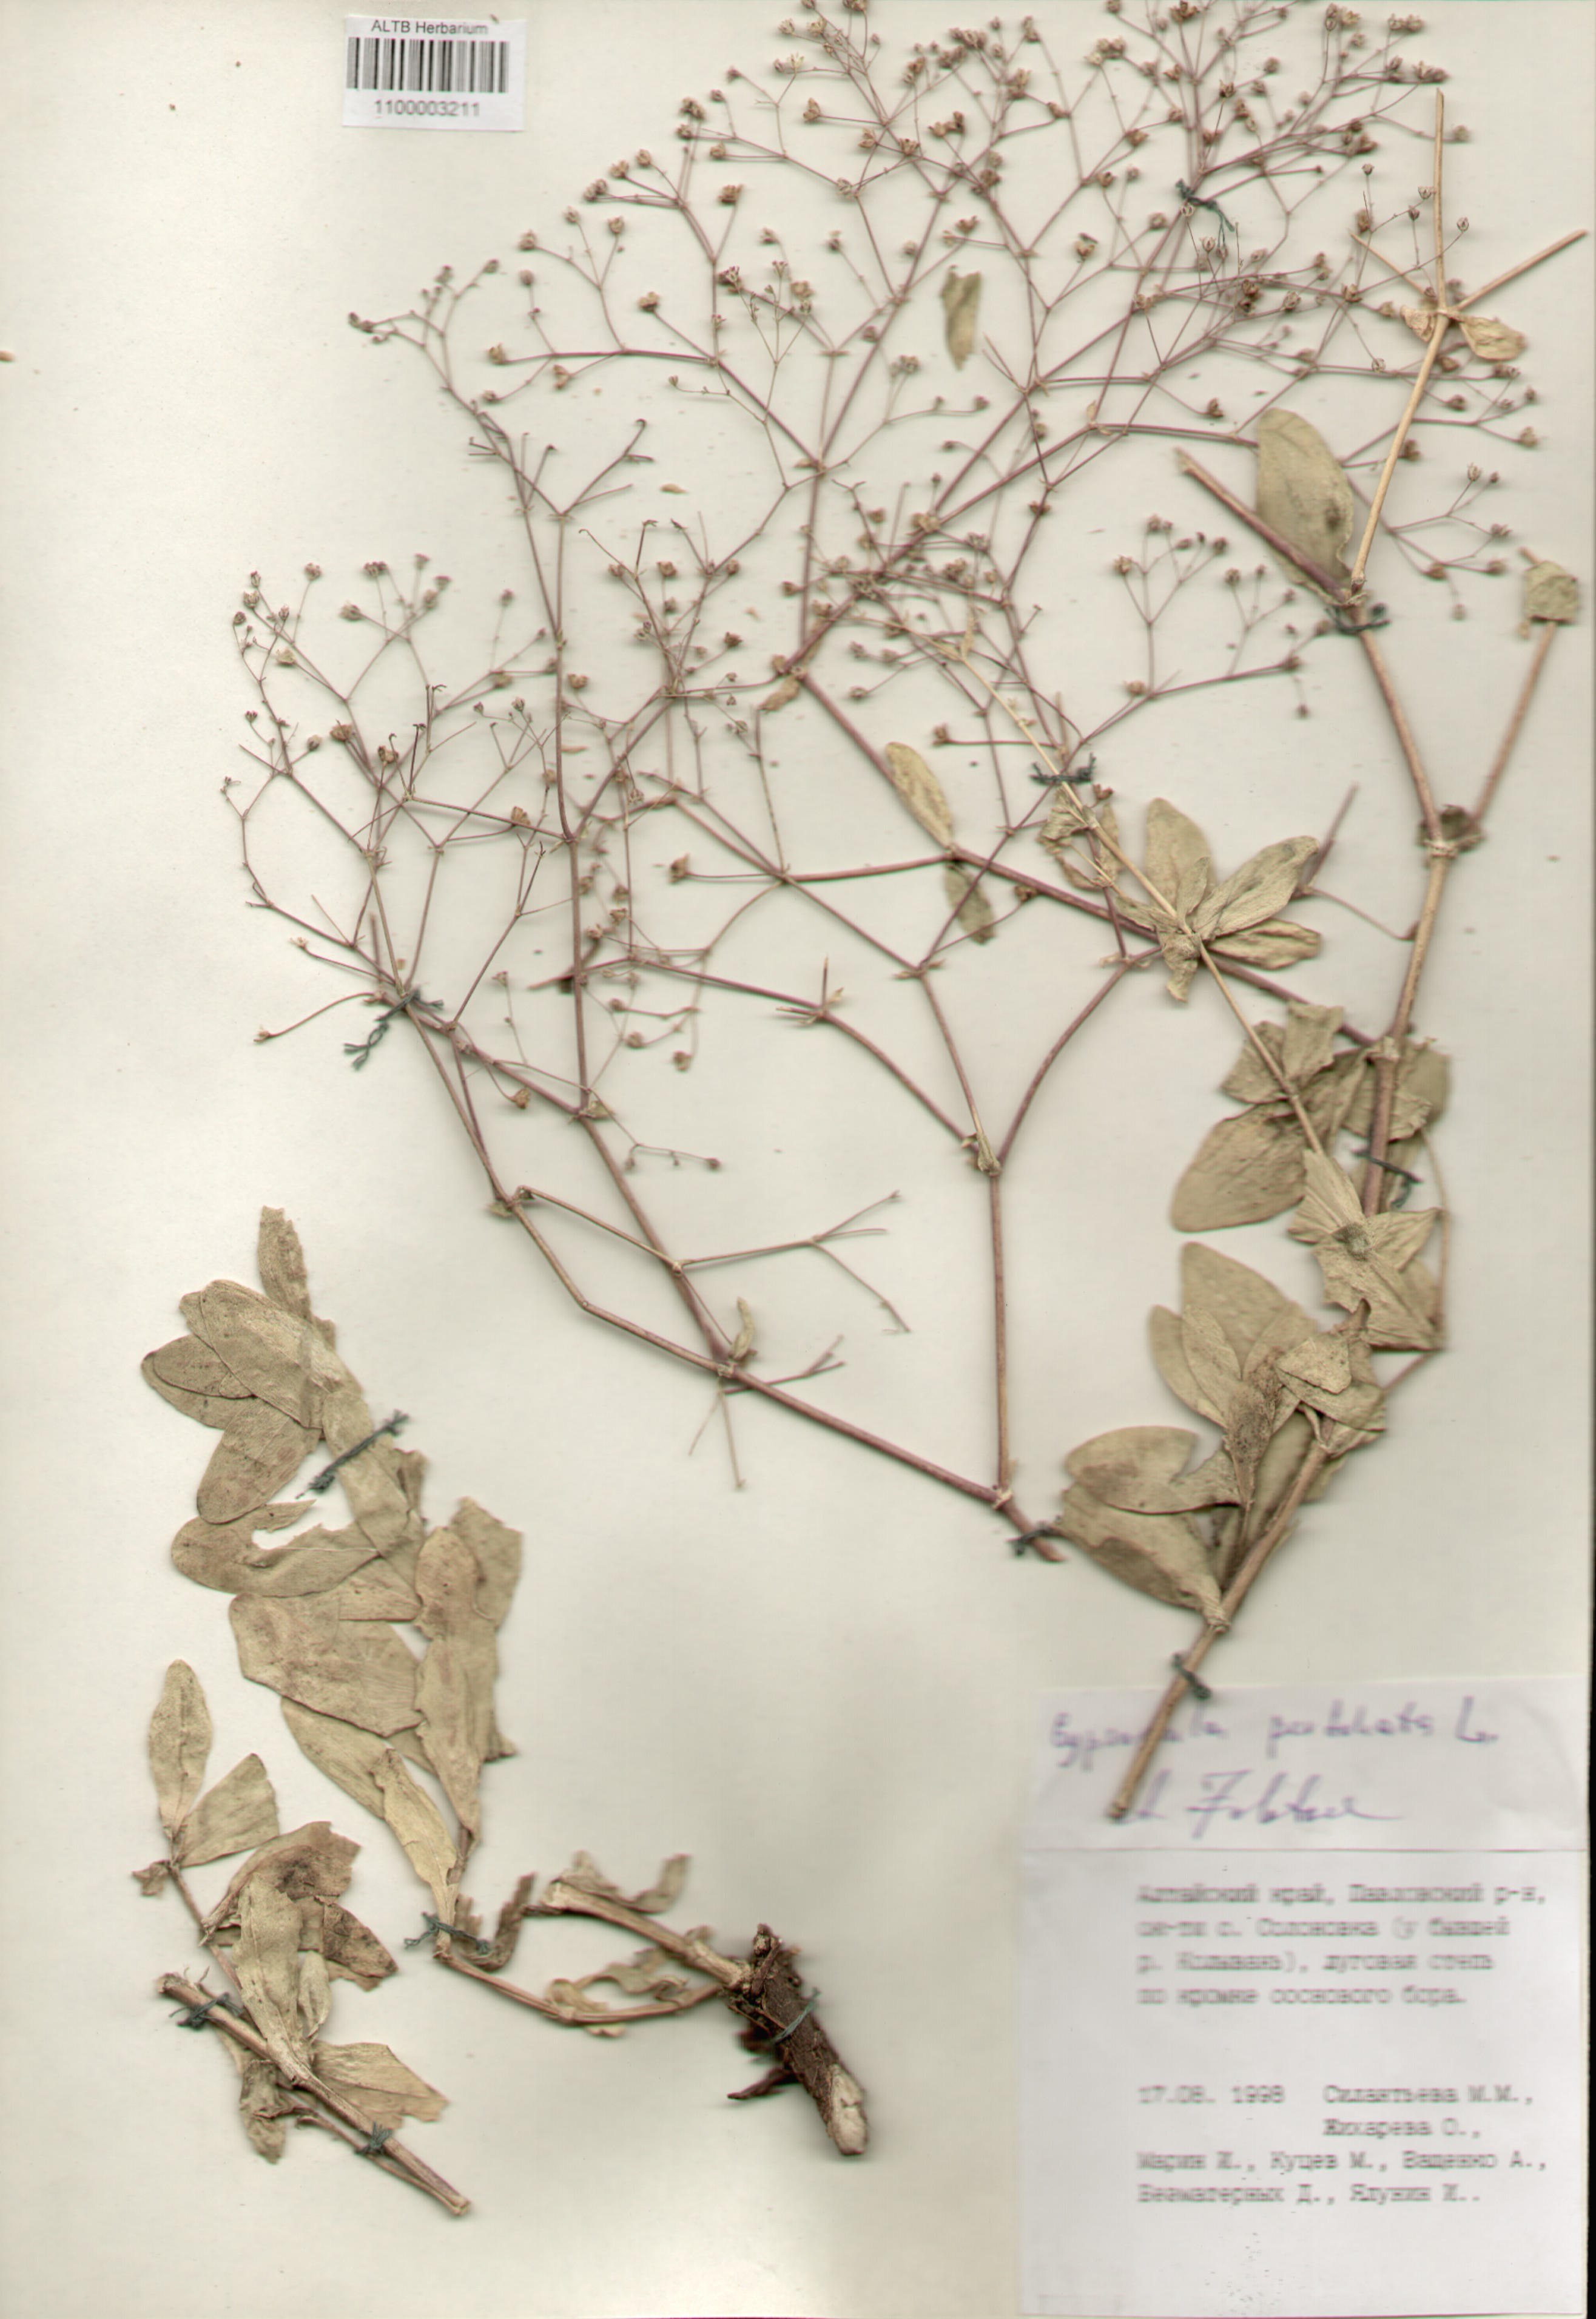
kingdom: Plantae
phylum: Tracheophyta
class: Magnoliopsida
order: Caryophyllales
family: Caryophyllaceae
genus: Gypsophila
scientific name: Gypsophila perfoliata
